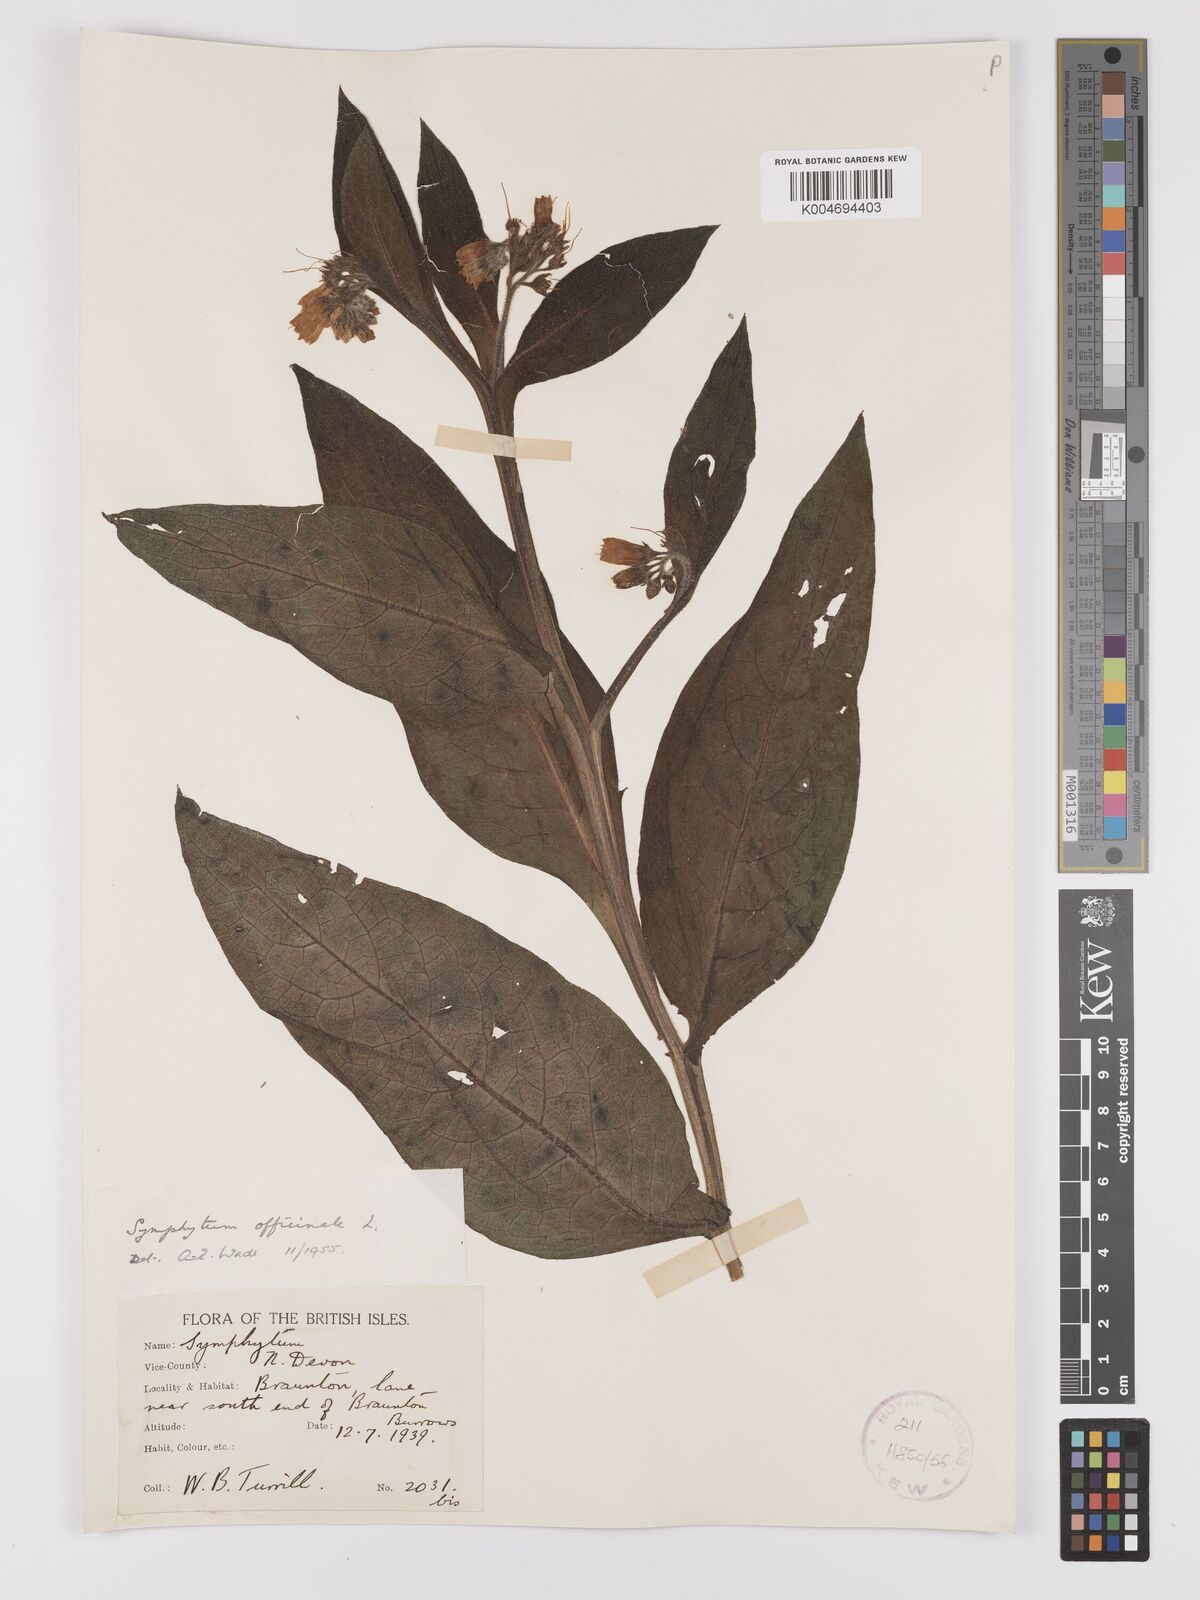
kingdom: Plantae
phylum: Tracheophyta
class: Magnoliopsida
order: Boraginales
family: Boraginaceae
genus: Symphytum
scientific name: Symphytum officinale
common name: Common comfrey
